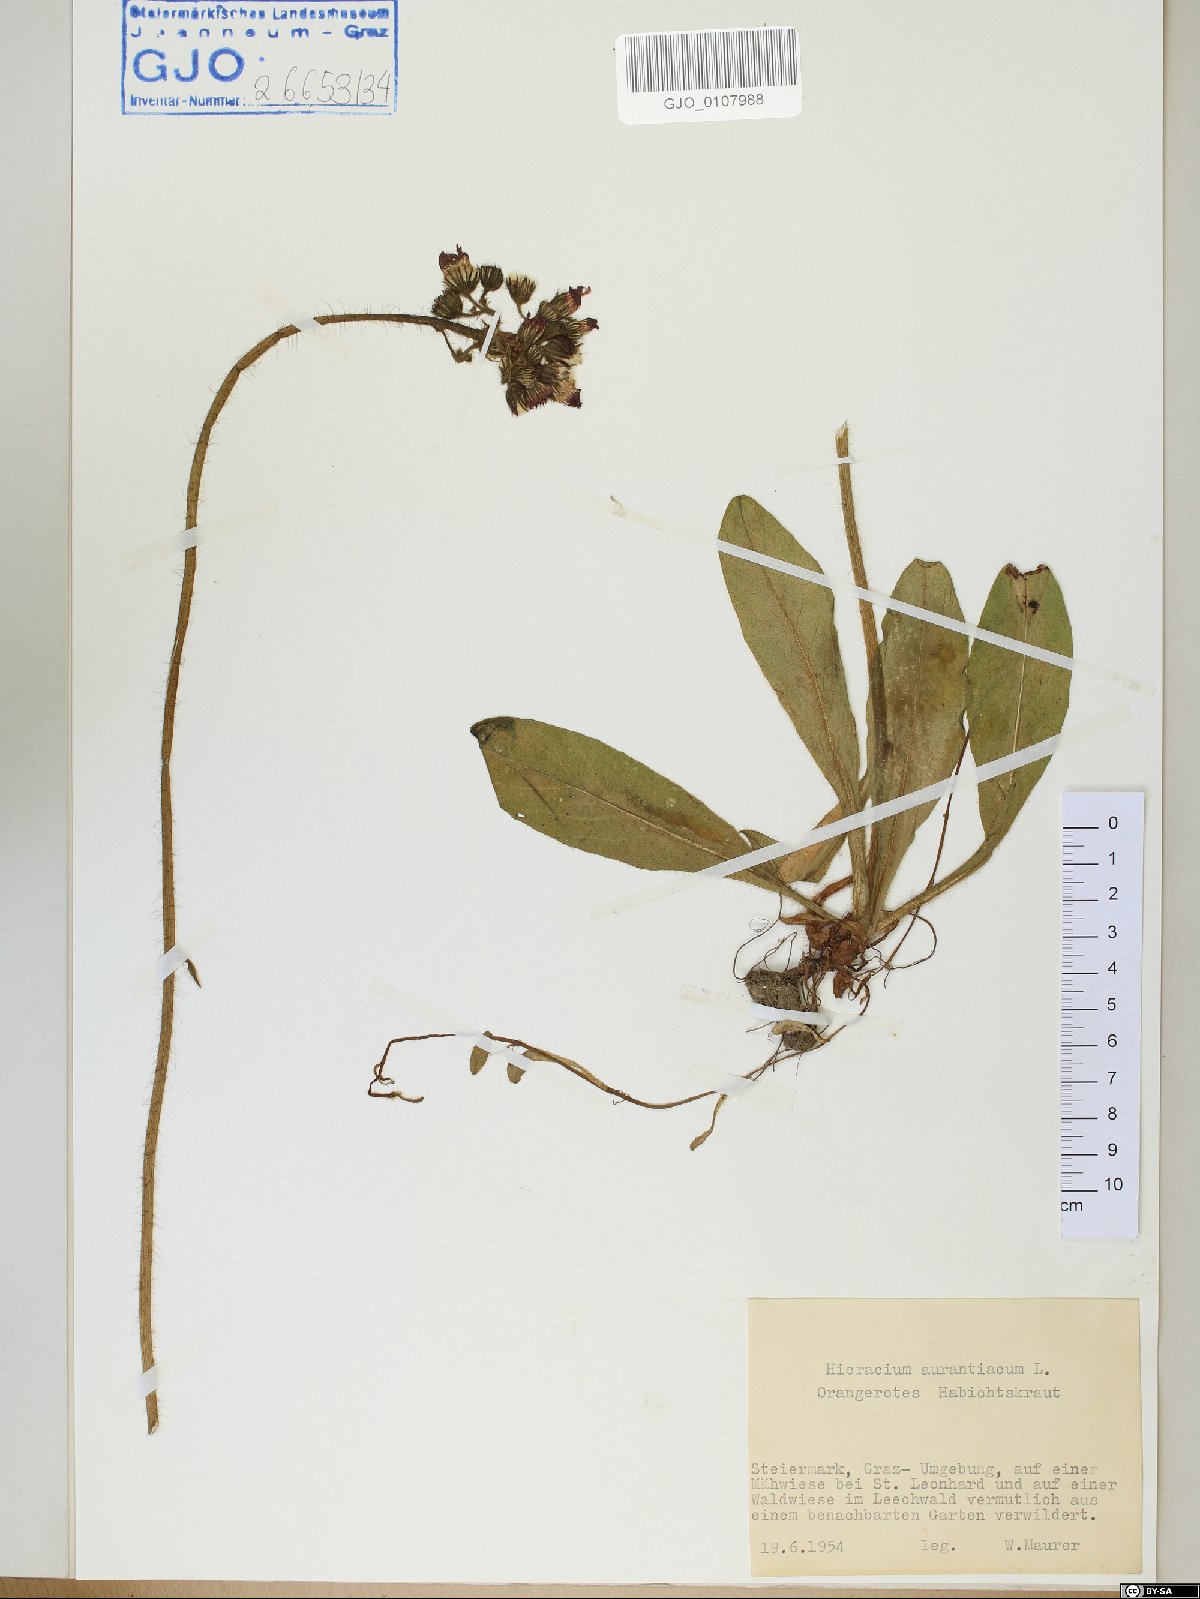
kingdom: Plantae
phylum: Tracheophyta
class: Magnoliopsida
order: Asterales
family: Asteraceae
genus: Pilosella
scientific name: Pilosella aurantiaca
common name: Fox-and-cubs
